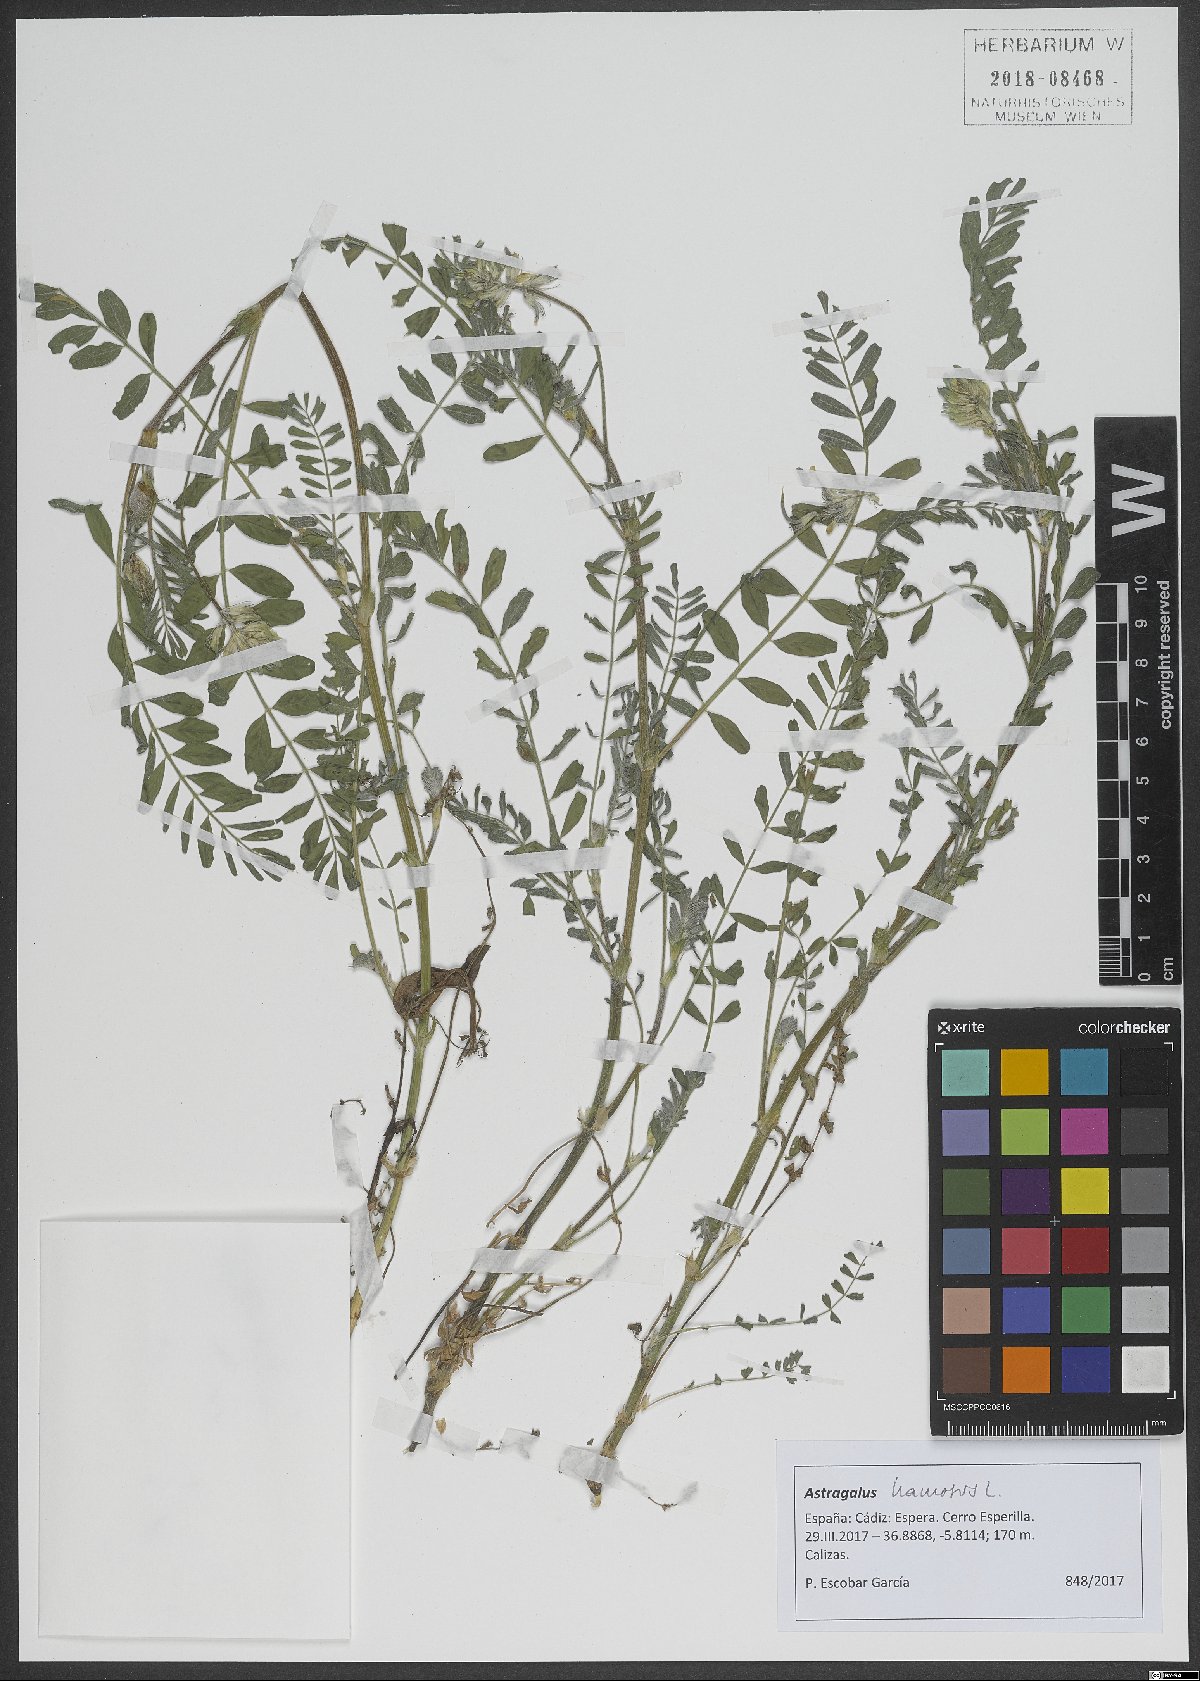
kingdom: Plantae
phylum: Tracheophyta
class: Magnoliopsida
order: Fabales
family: Fabaceae
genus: Astragalus
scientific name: Astragalus hamosus
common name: European milkvetch
